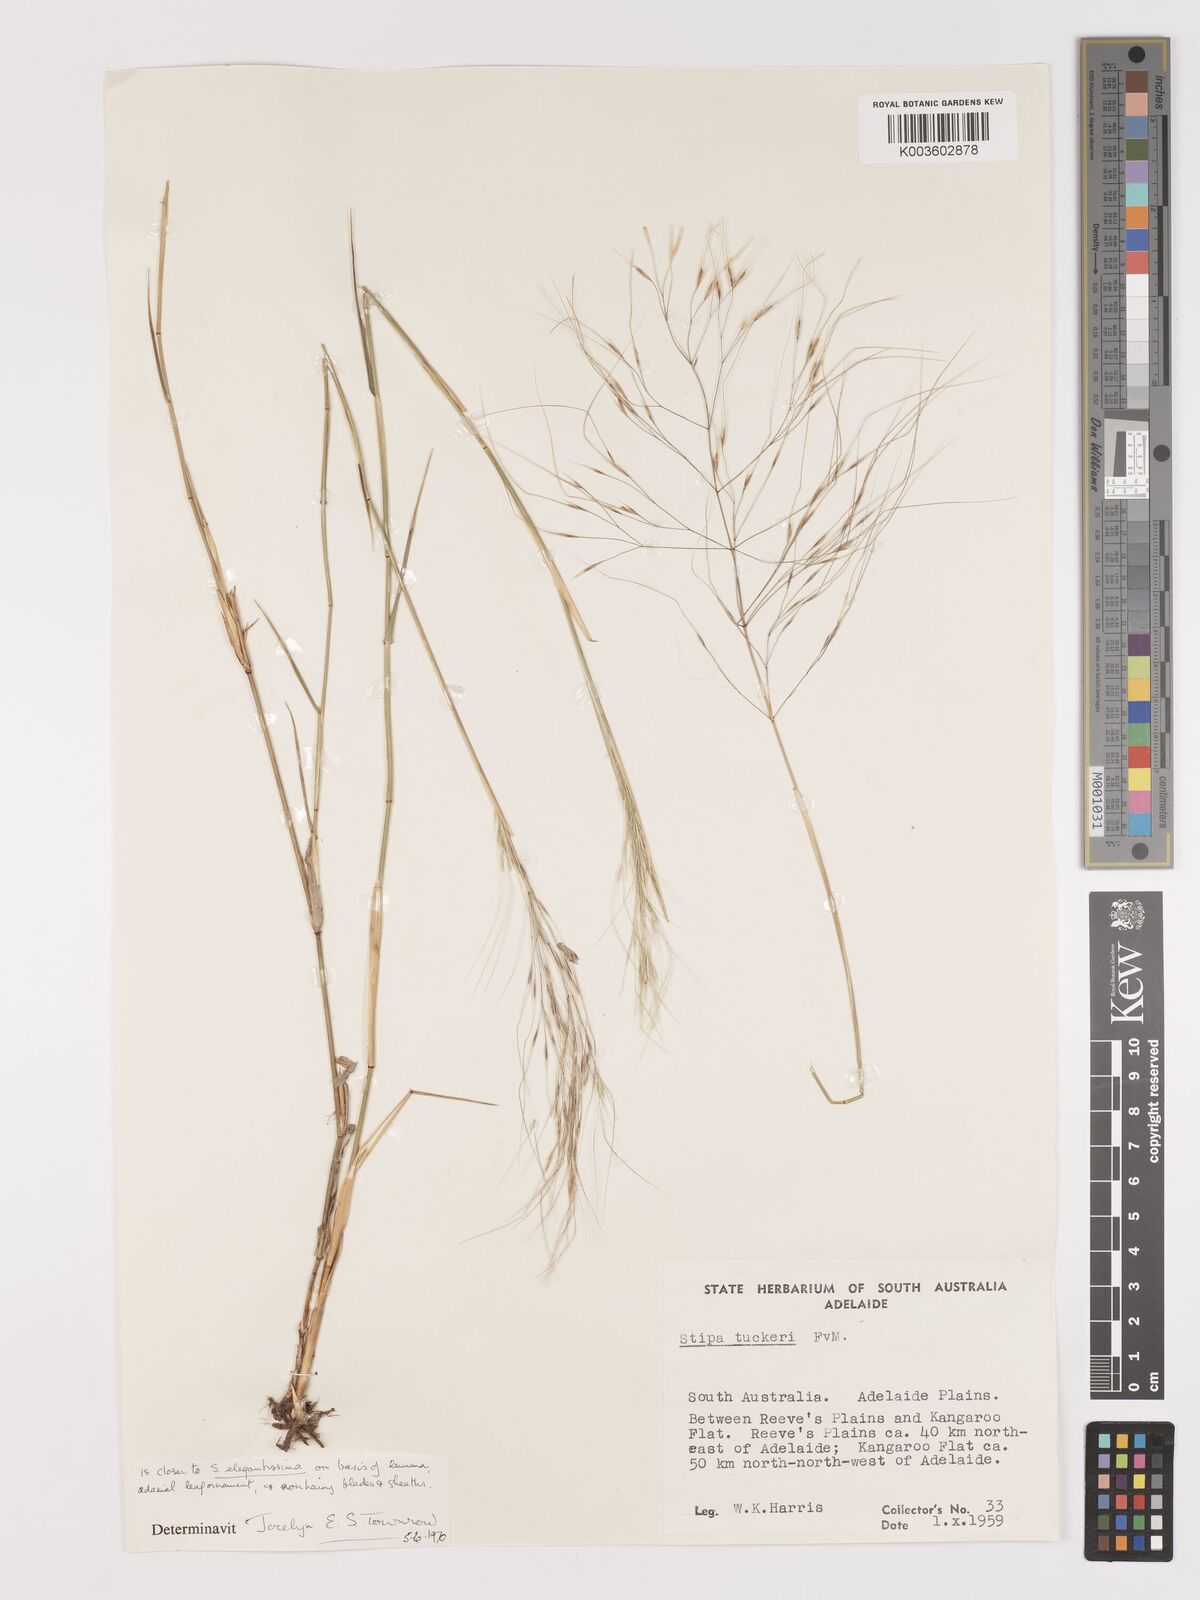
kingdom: Plantae
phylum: Tracheophyta
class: Liliopsida
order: Poales
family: Poaceae
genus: Austrostipa
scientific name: Austrostipa elegantissima
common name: Feather spear grass
